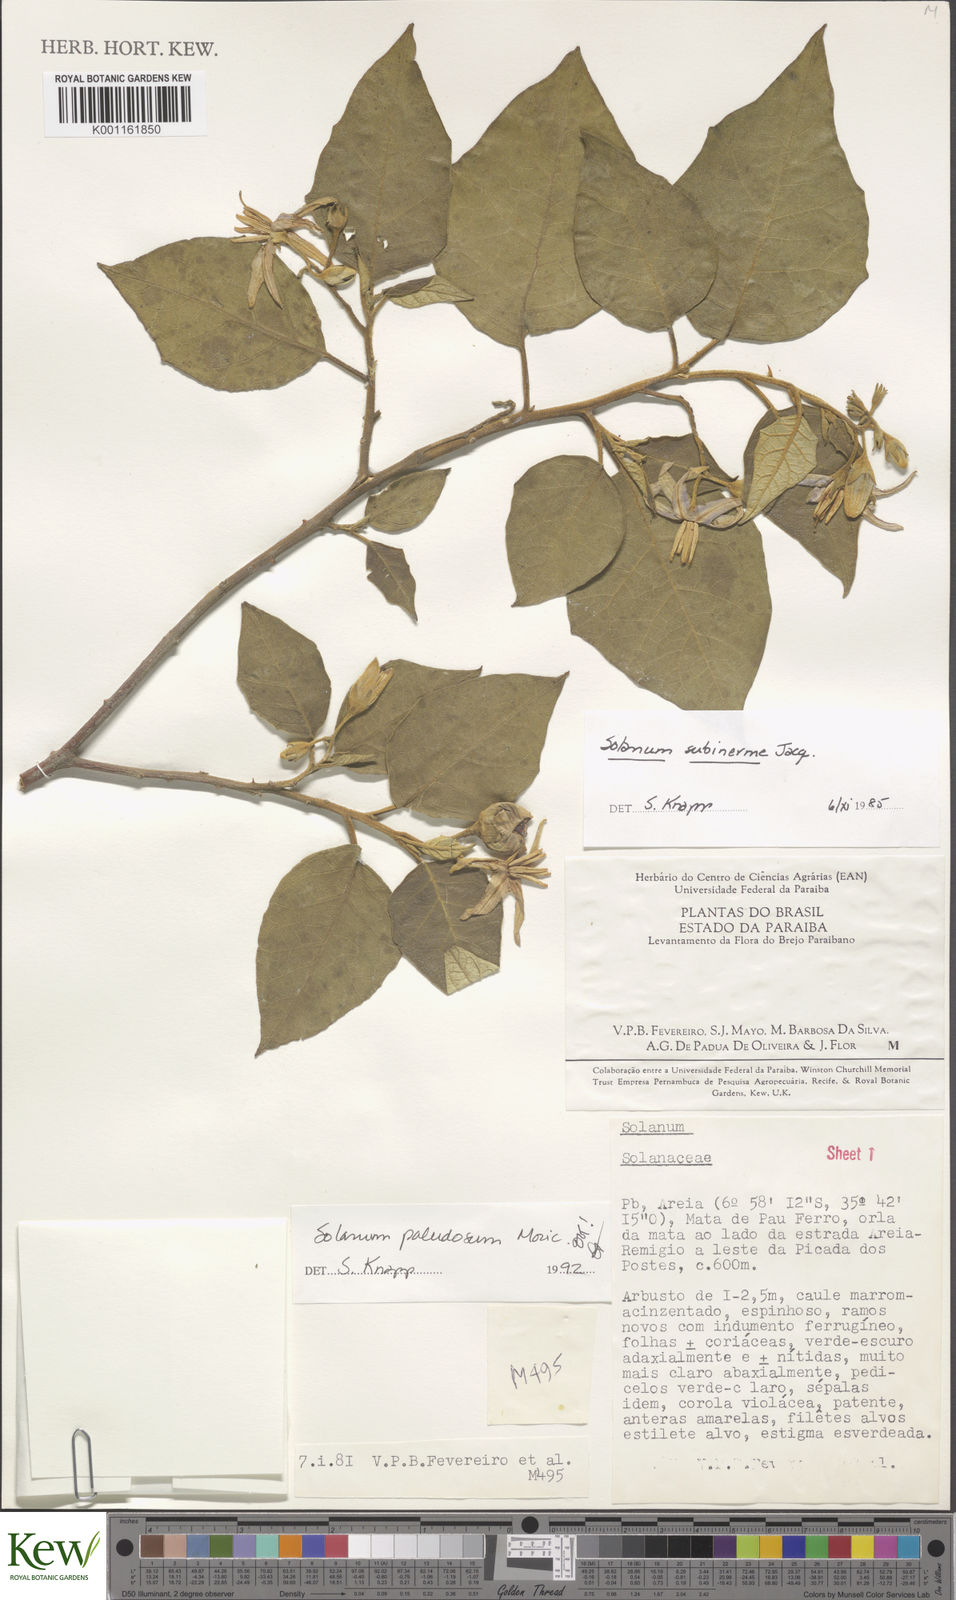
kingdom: Plantae
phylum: Tracheophyta
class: Magnoliopsida
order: Solanales
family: Solanaceae
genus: Solanum
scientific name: Solanum paludosum
